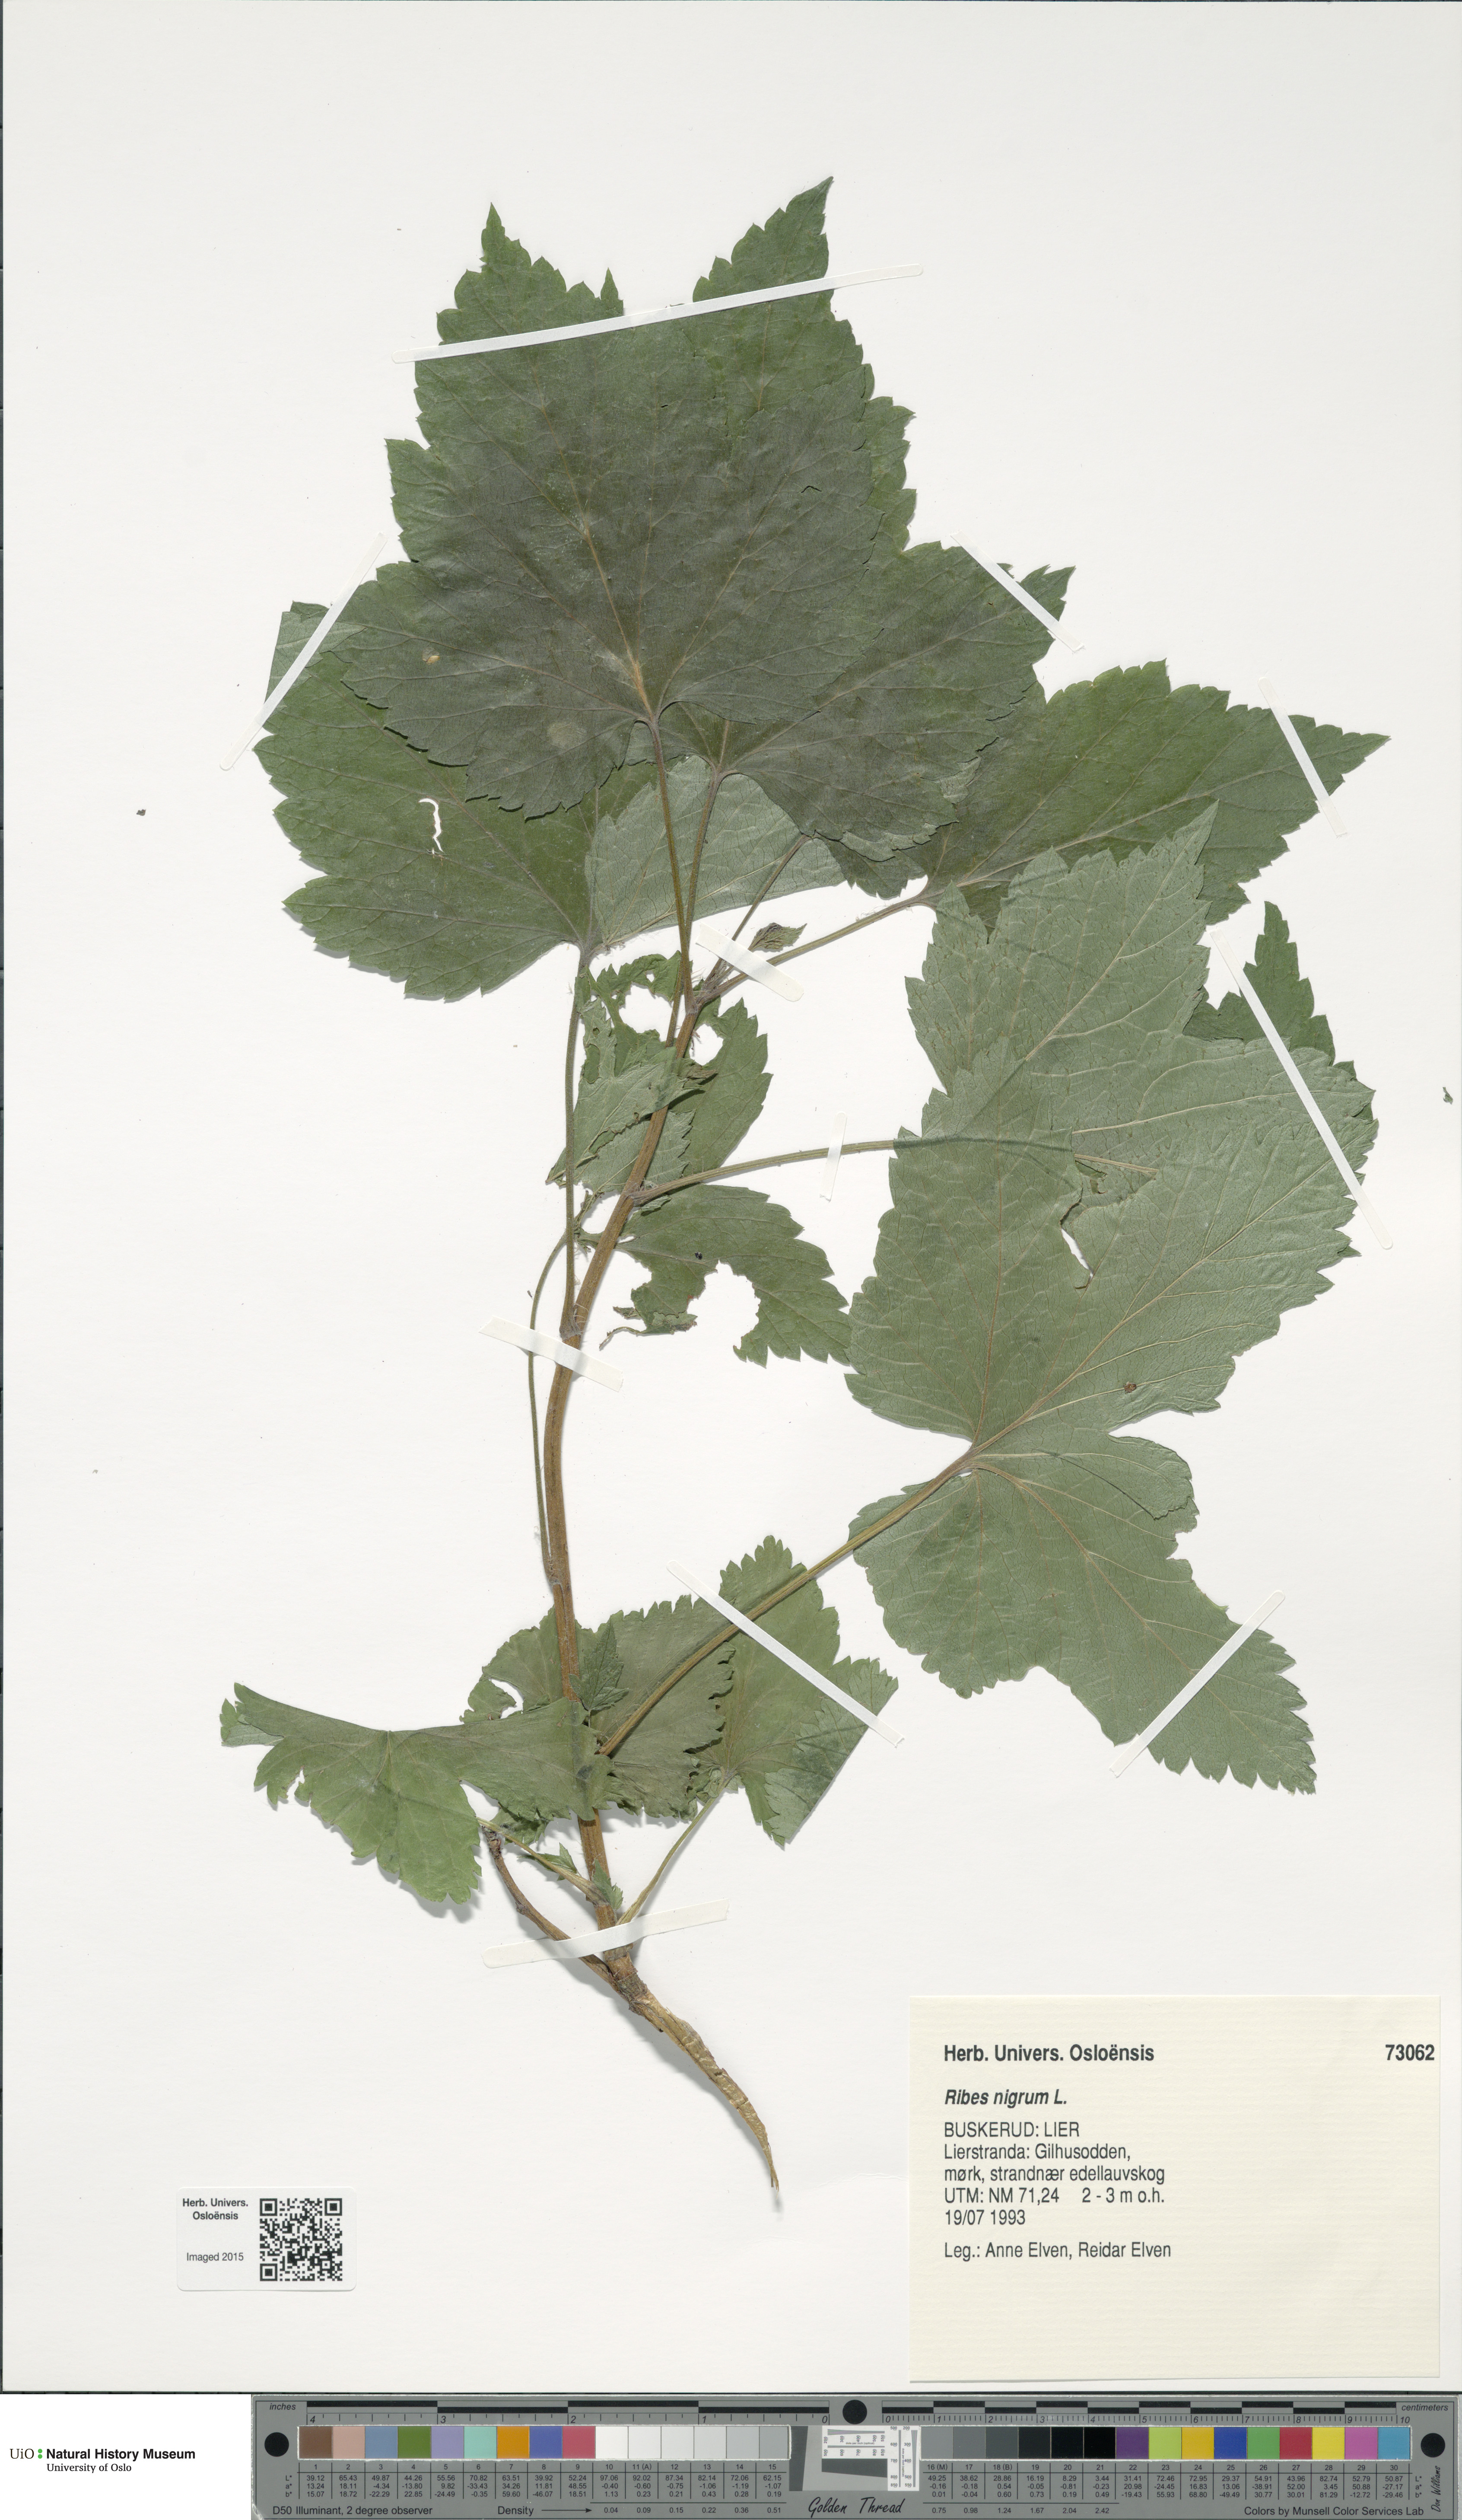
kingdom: Plantae
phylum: Tracheophyta
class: Magnoliopsida
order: Saxifragales
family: Grossulariaceae
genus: Ribes
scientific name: Ribes nigrum
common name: Black currant
